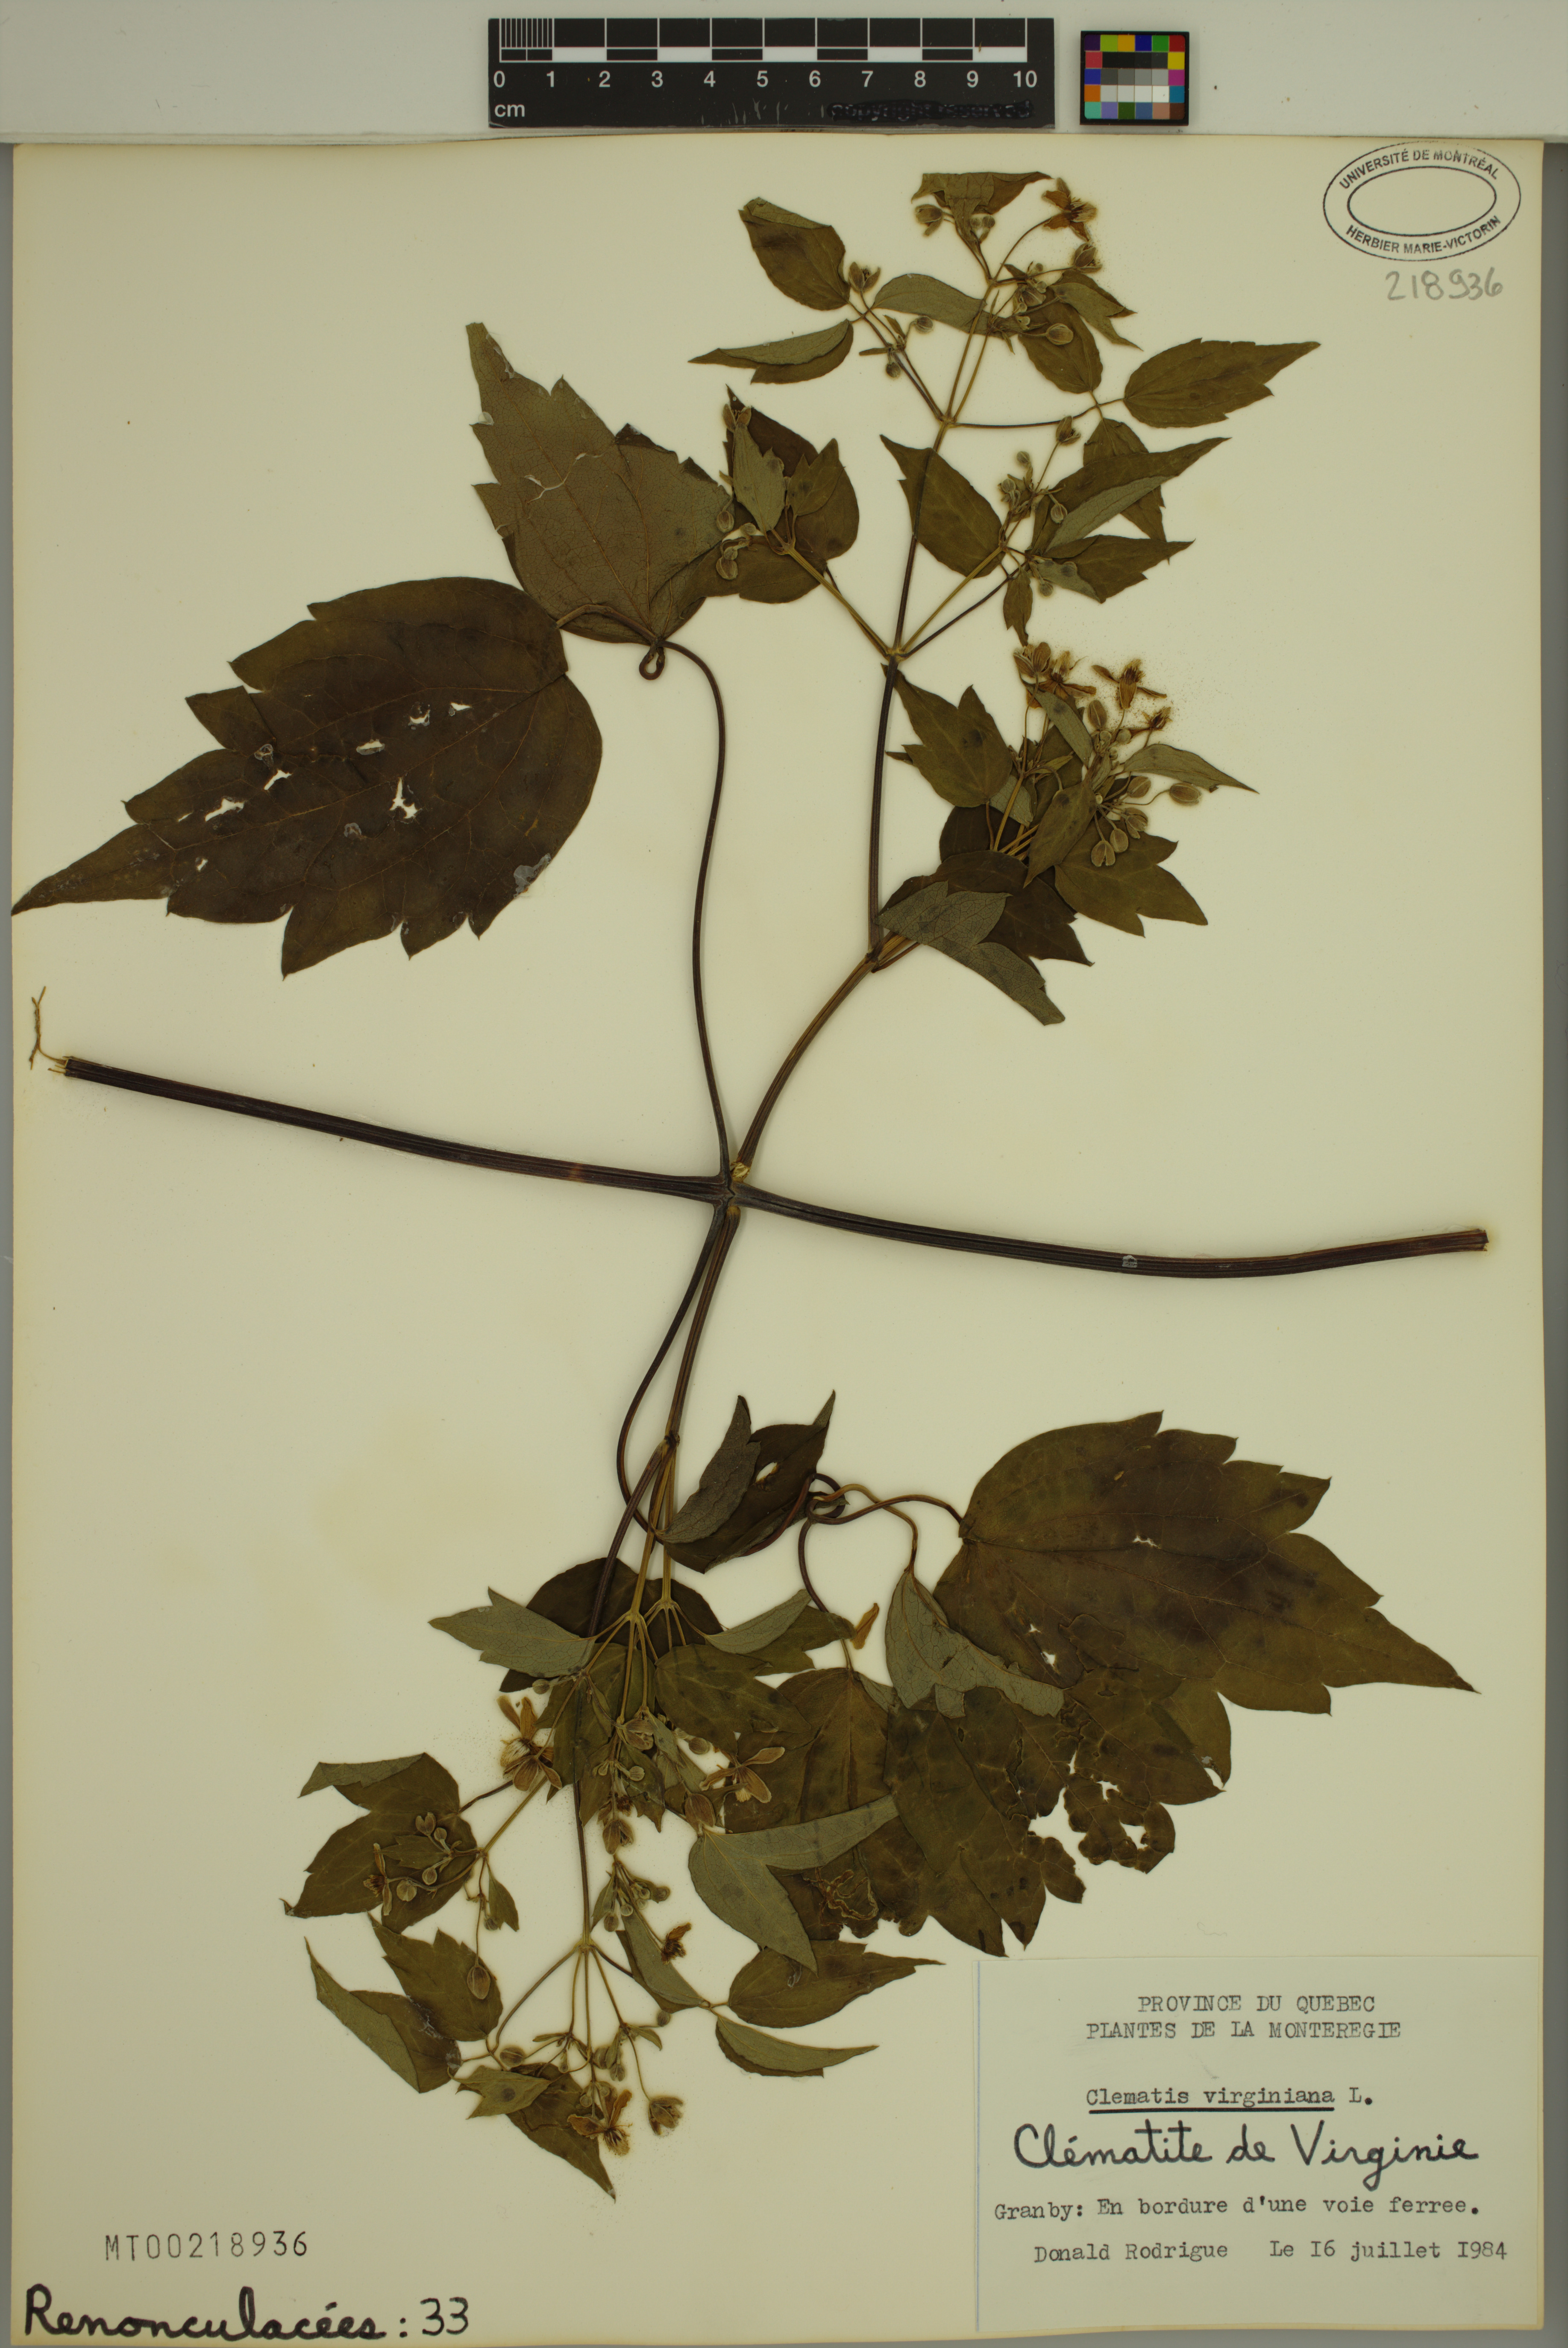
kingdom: Plantae
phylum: Tracheophyta
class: Magnoliopsida
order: Ranunculales
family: Ranunculaceae
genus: Clematis
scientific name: Clematis virginiana
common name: Virgin's-bower
